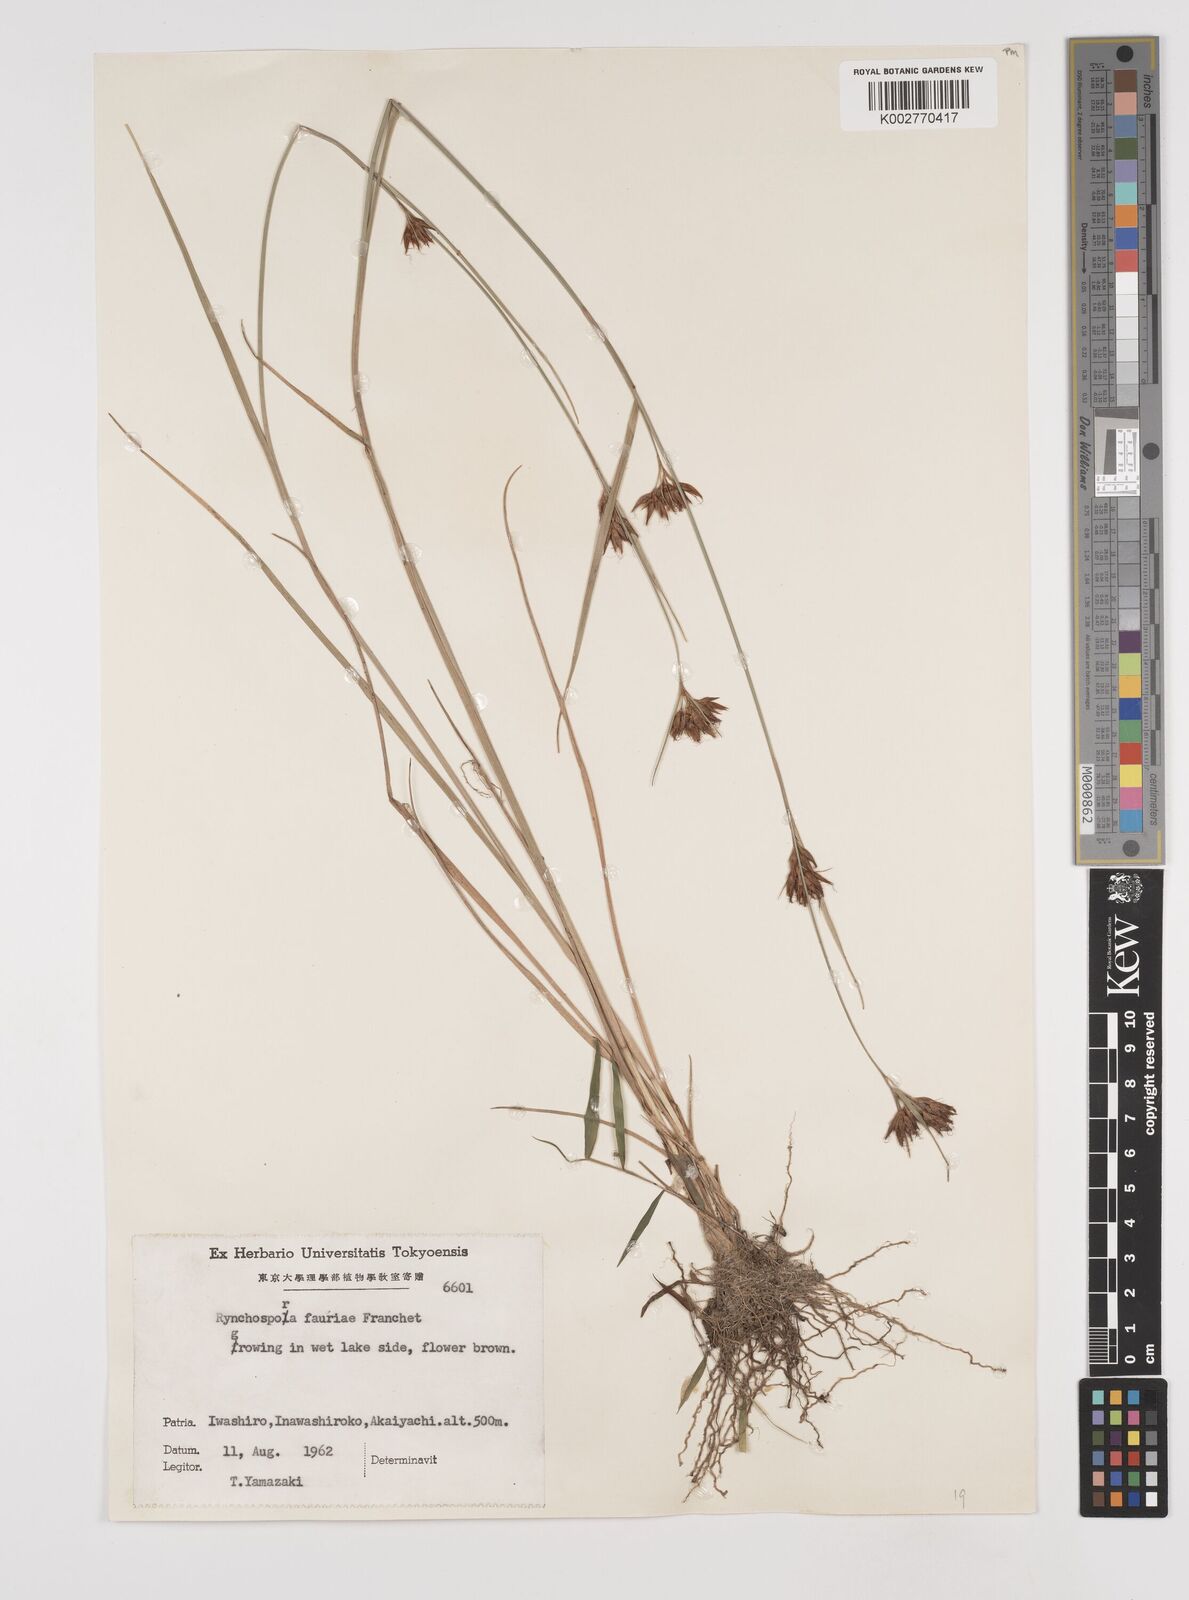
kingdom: Plantae
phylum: Tracheophyta
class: Liliopsida
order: Poales
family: Cyperaceae
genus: Rhynchospora
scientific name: Rhynchospora fauriei
